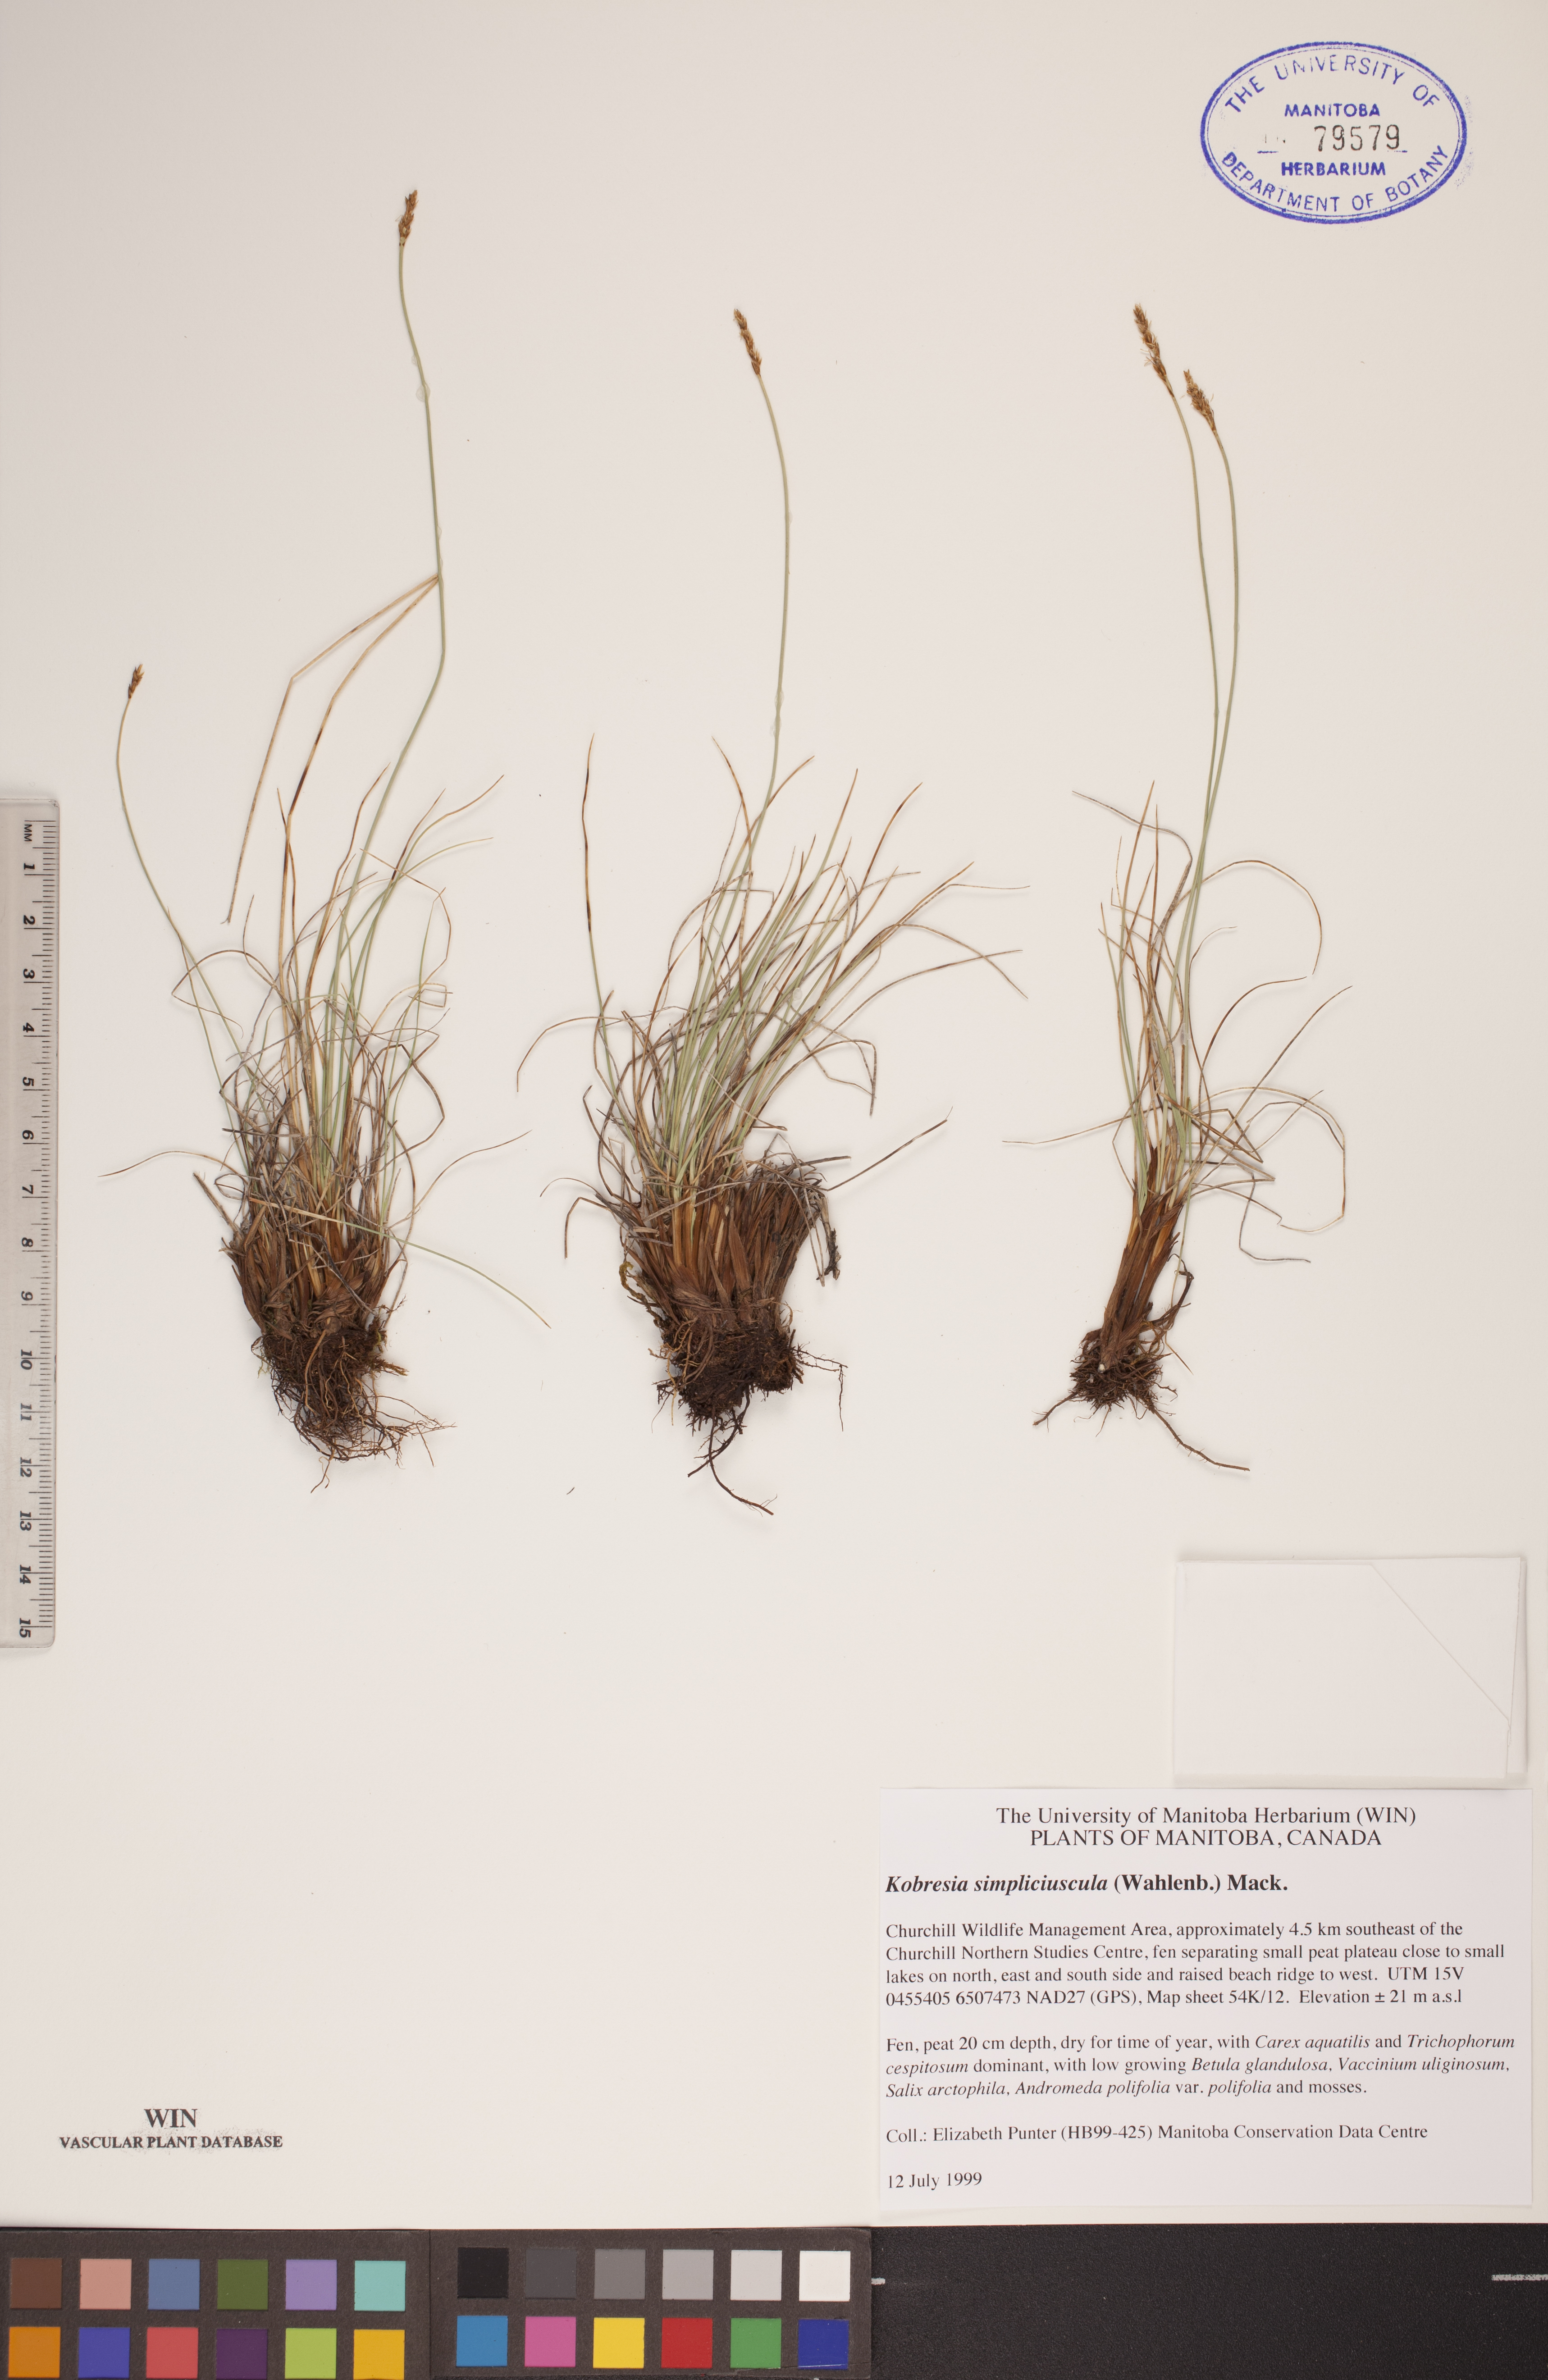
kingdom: Plantae
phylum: Tracheophyta
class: Liliopsida
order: Poales
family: Cyperaceae
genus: Carex
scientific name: Carex simpliciuscula
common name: Simple bog sedge
